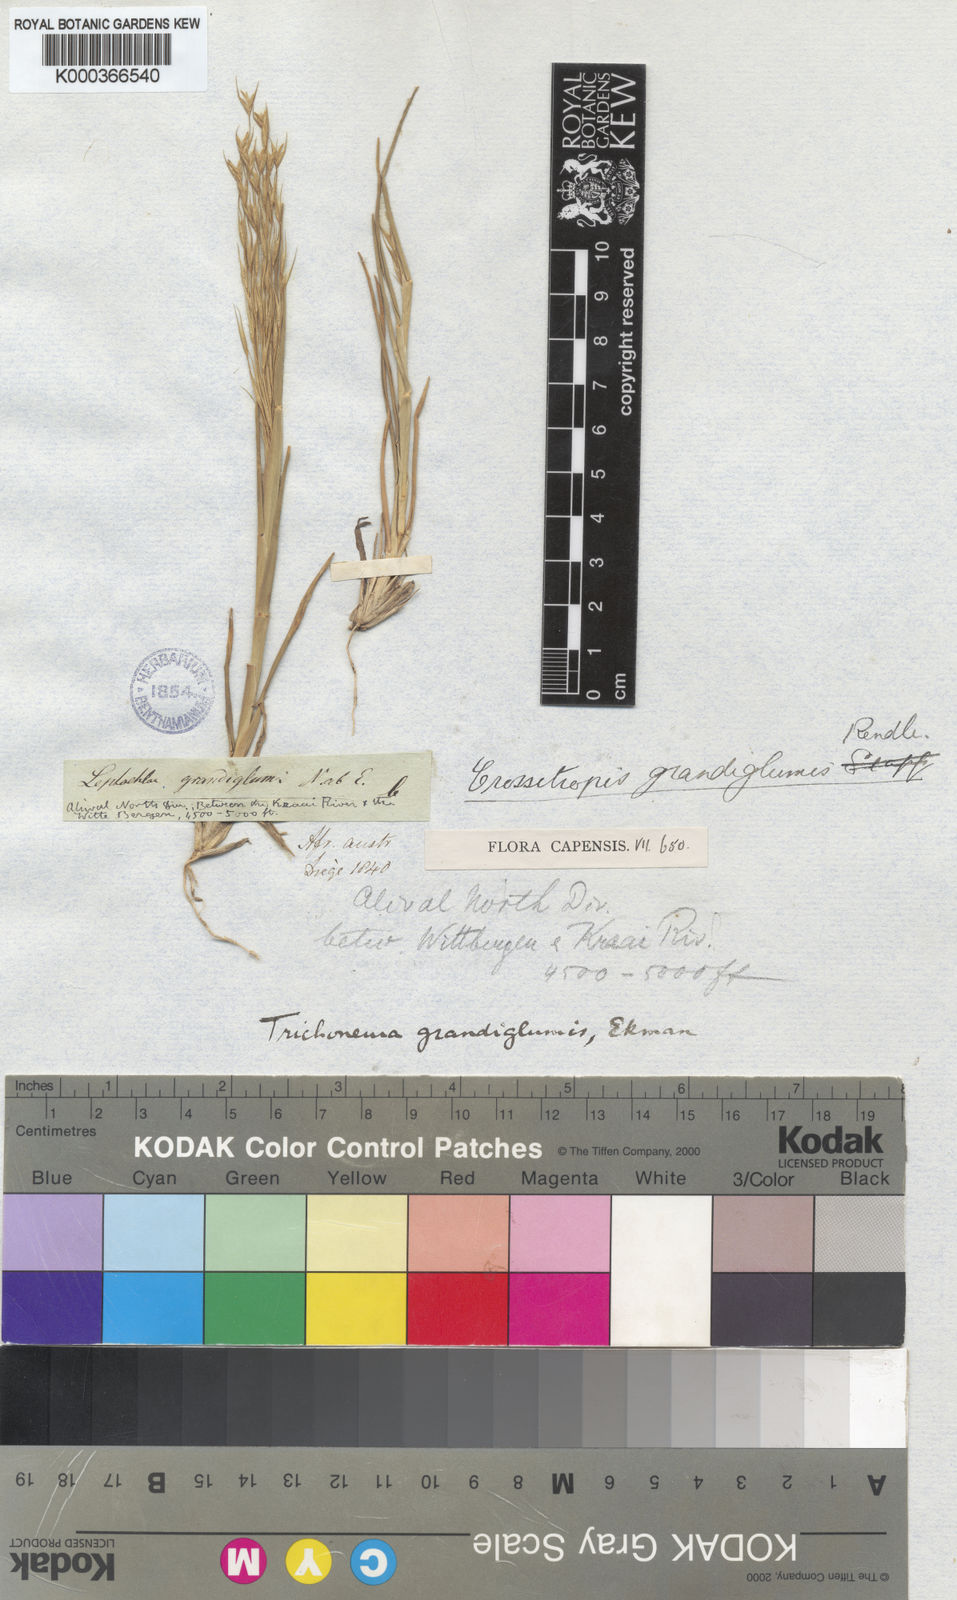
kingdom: Plantae
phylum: Tracheophyta
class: Liliopsida
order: Poales
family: Poaceae
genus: Trichoneura
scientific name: Trichoneura grandiglumis
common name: Rolling grass
